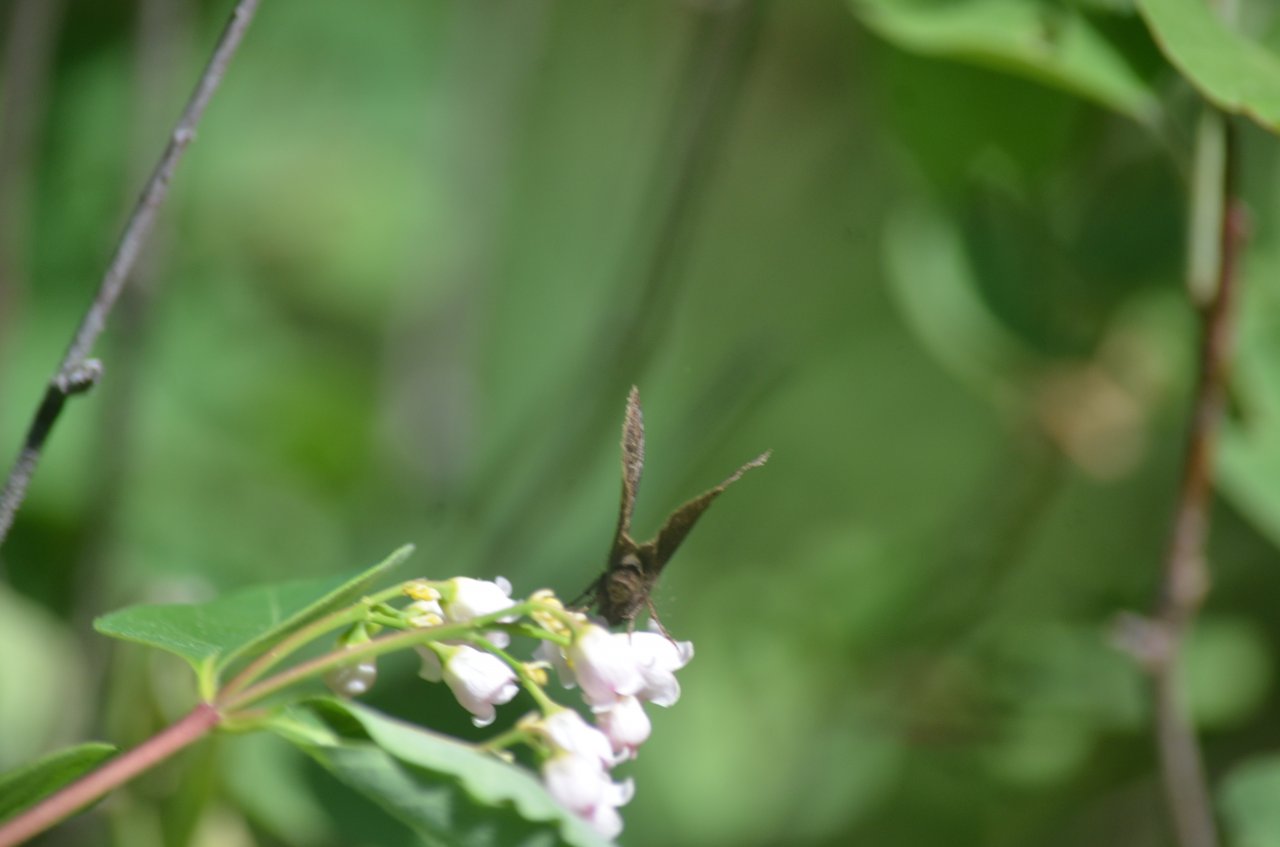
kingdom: Animalia
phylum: Arthropoda
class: Insecta
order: Lepidoptera
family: Hesperiidae
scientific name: Hesperiidae
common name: Skippers
